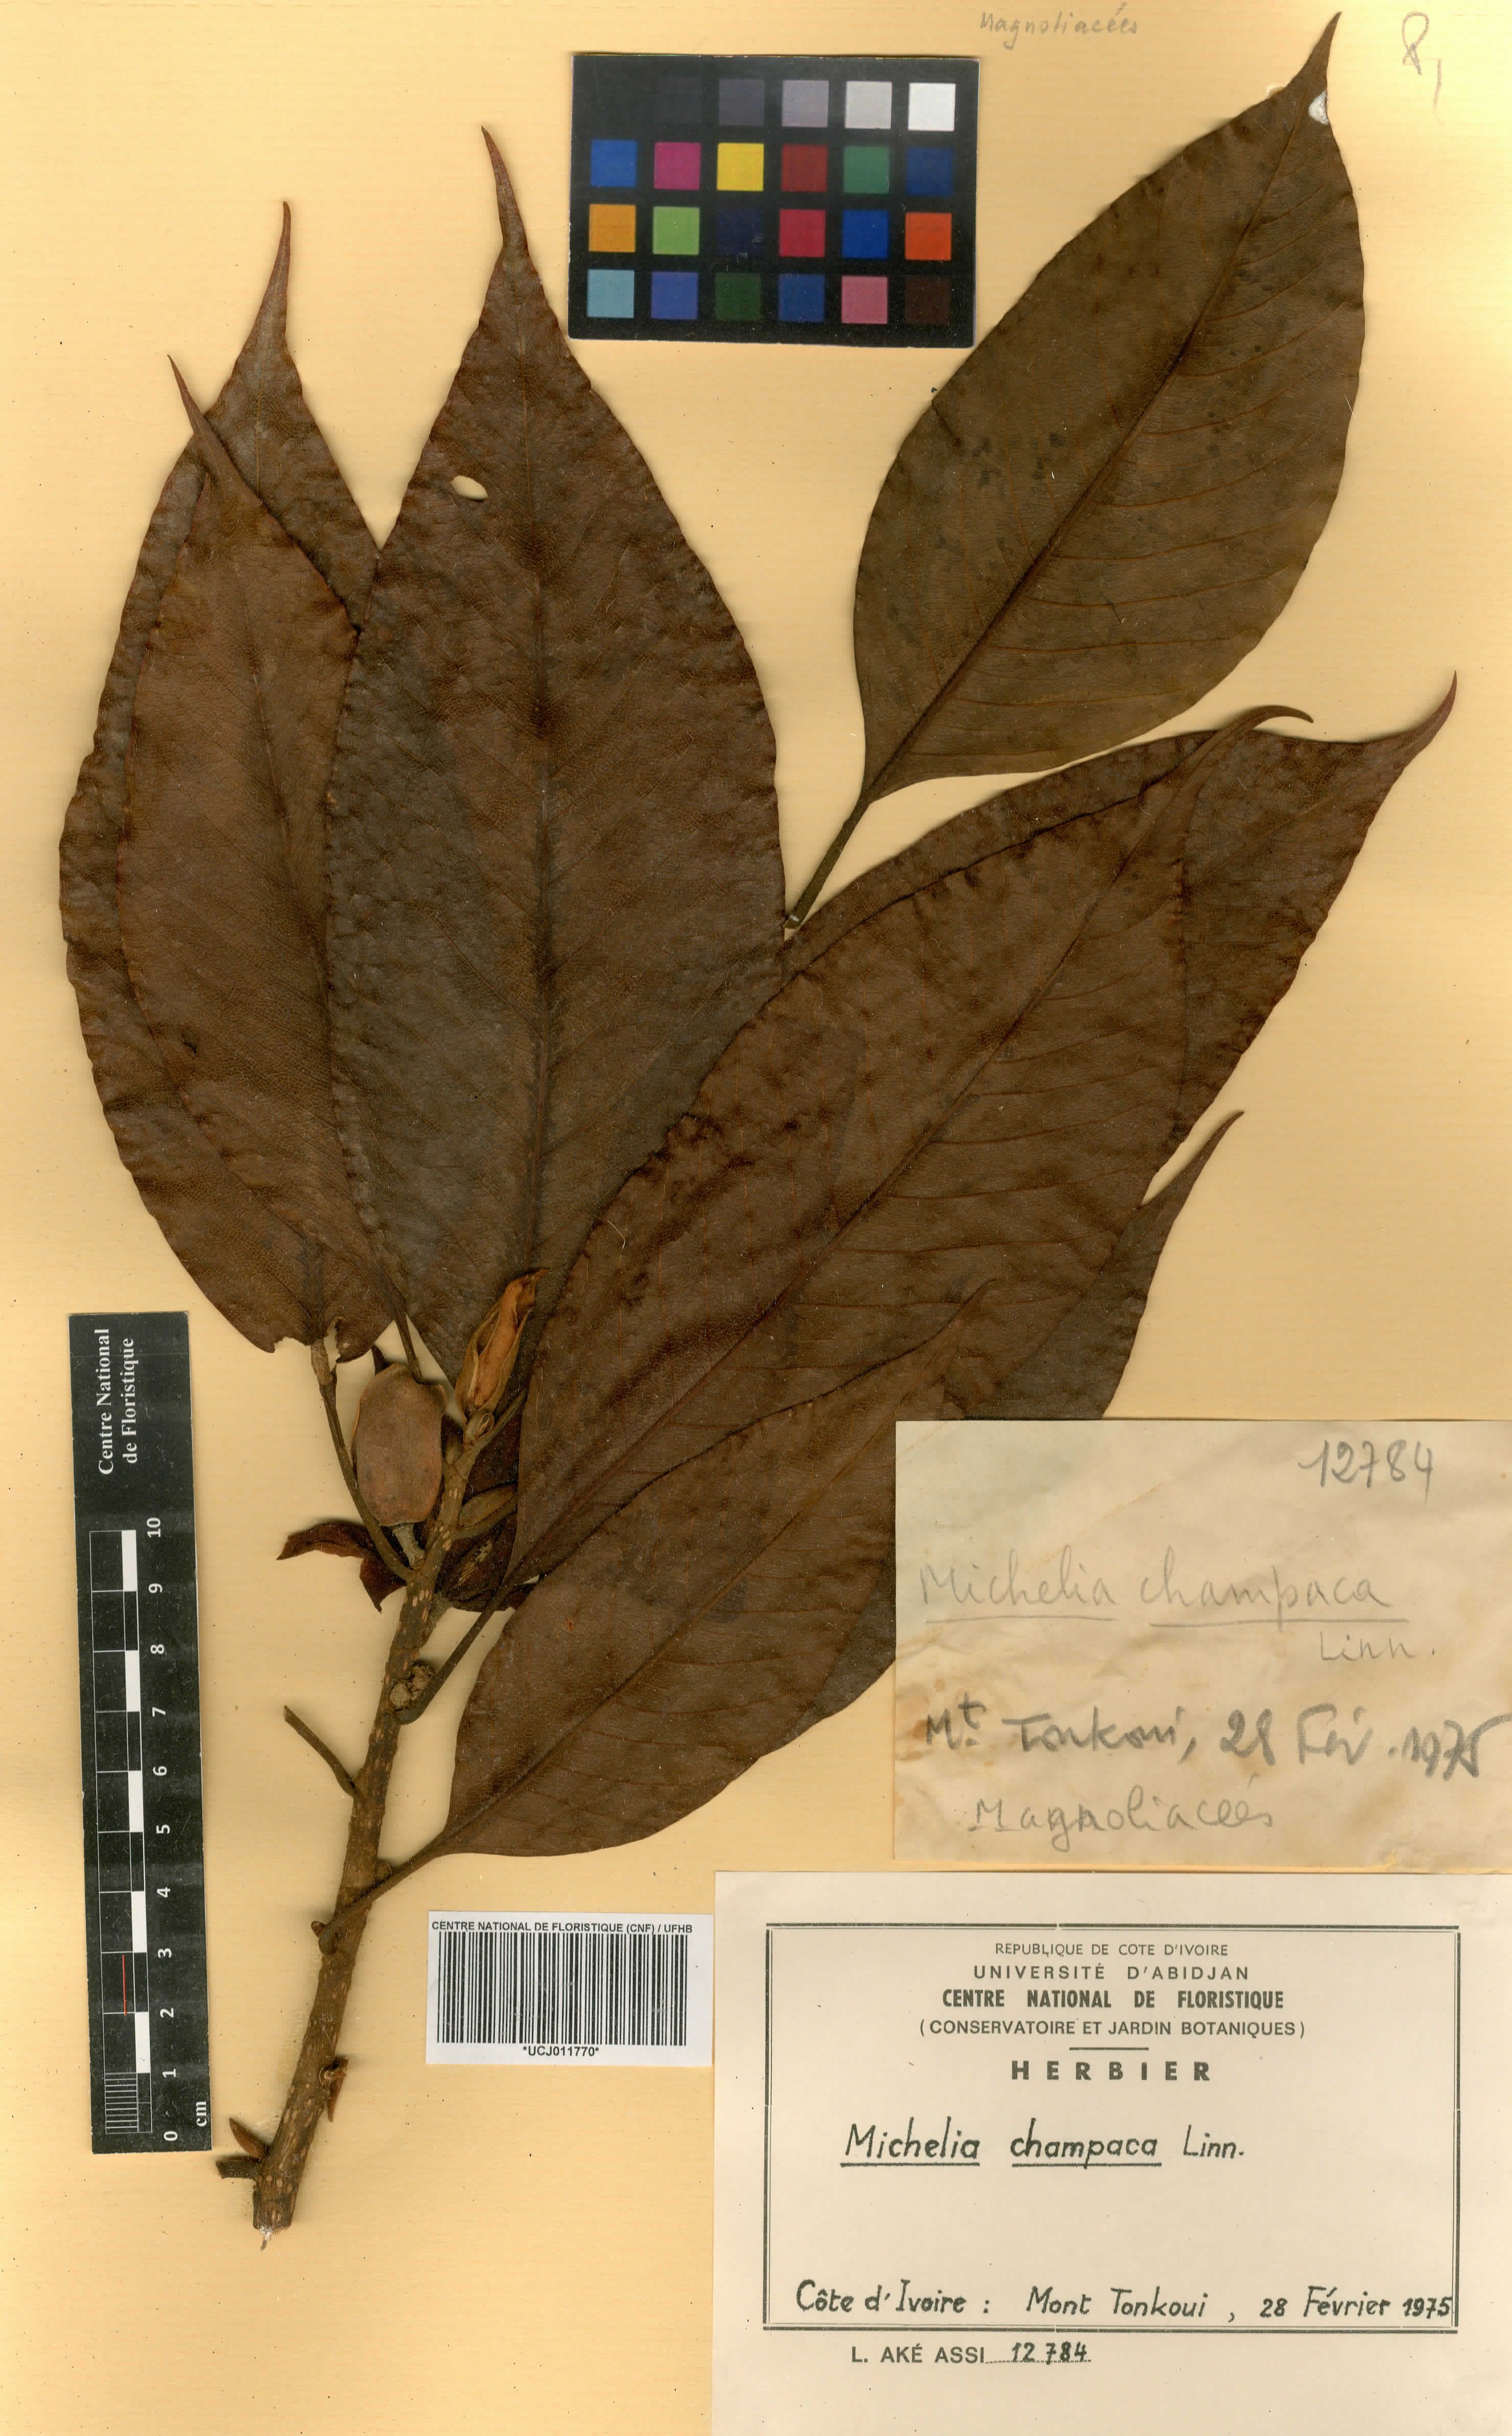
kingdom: Plantae
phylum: Tracheophyta
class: Magnoliopsida
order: Magnoliales
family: Magnoliaceae
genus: Magnolia
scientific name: Magnolia champaca
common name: Champak
